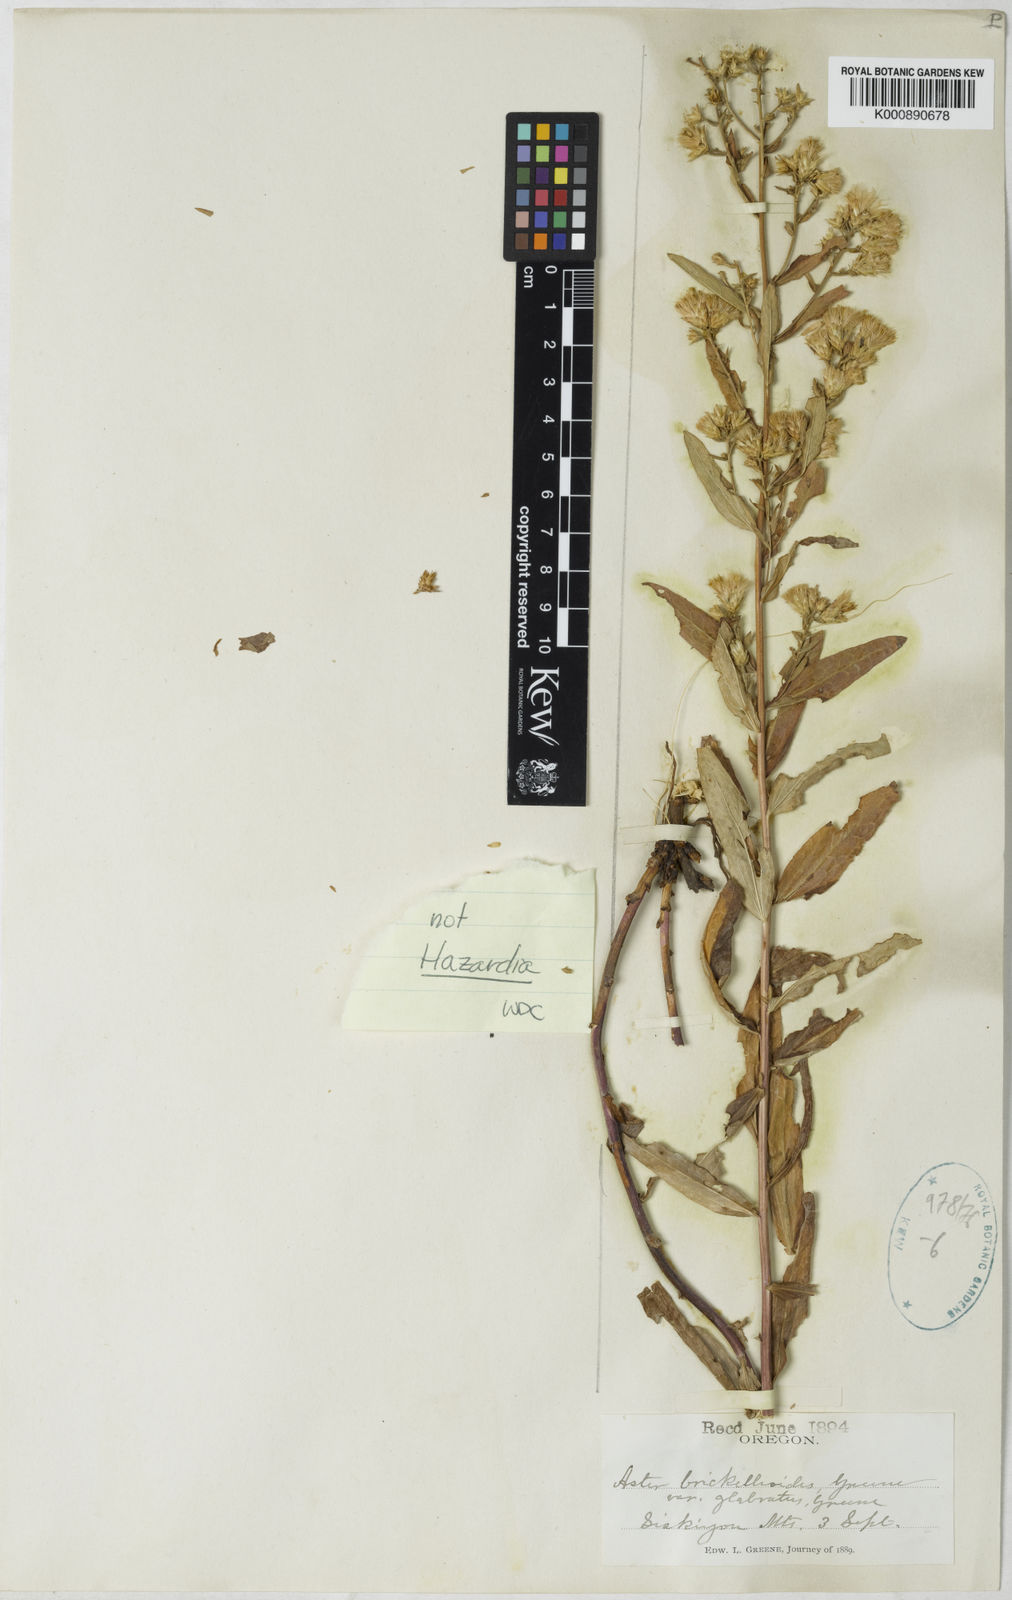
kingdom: Plantae
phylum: Tracheophyta
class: Magnoliopsida
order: Asterales
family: Asteraceae
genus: Eucephalus
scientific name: Eucephalus tomentellus
